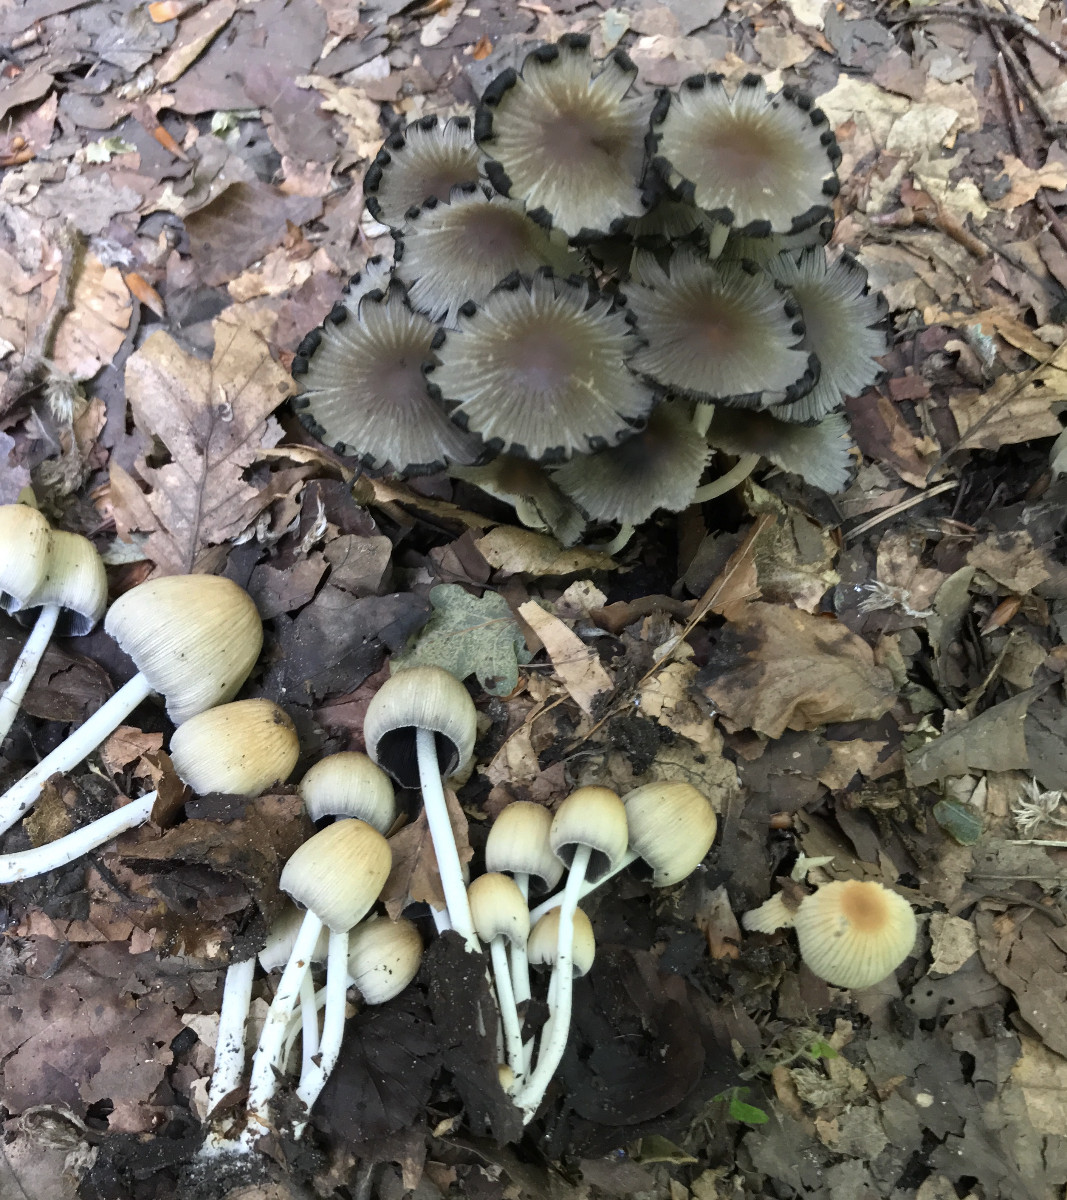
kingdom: Fungi
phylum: Basidiomycota
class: Agaricomycetes
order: Agaricales
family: Psathyrellaceae
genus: Coprinellus
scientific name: Coprinellus
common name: blækhat
